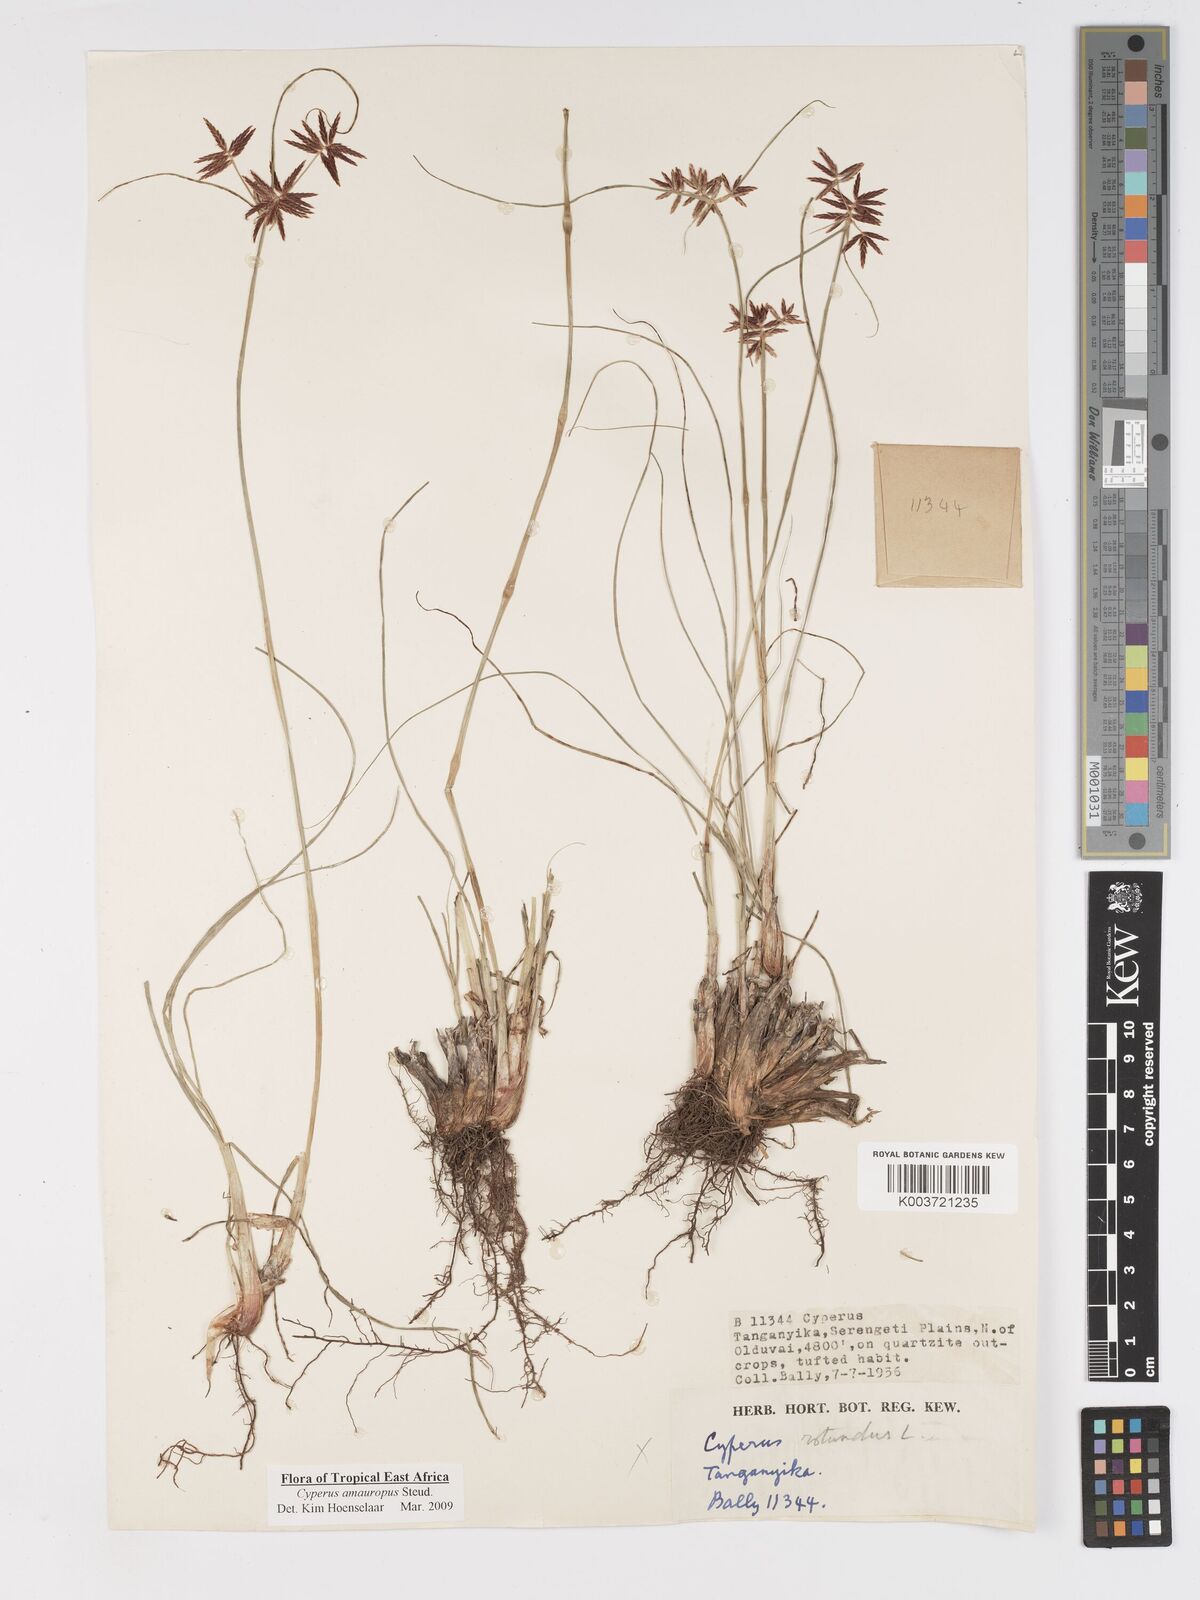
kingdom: Plantae
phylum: Tracheophyta
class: Liliopsida
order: Poales
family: Cyperaceae
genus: Cyperus
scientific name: Cyperus amauropus
